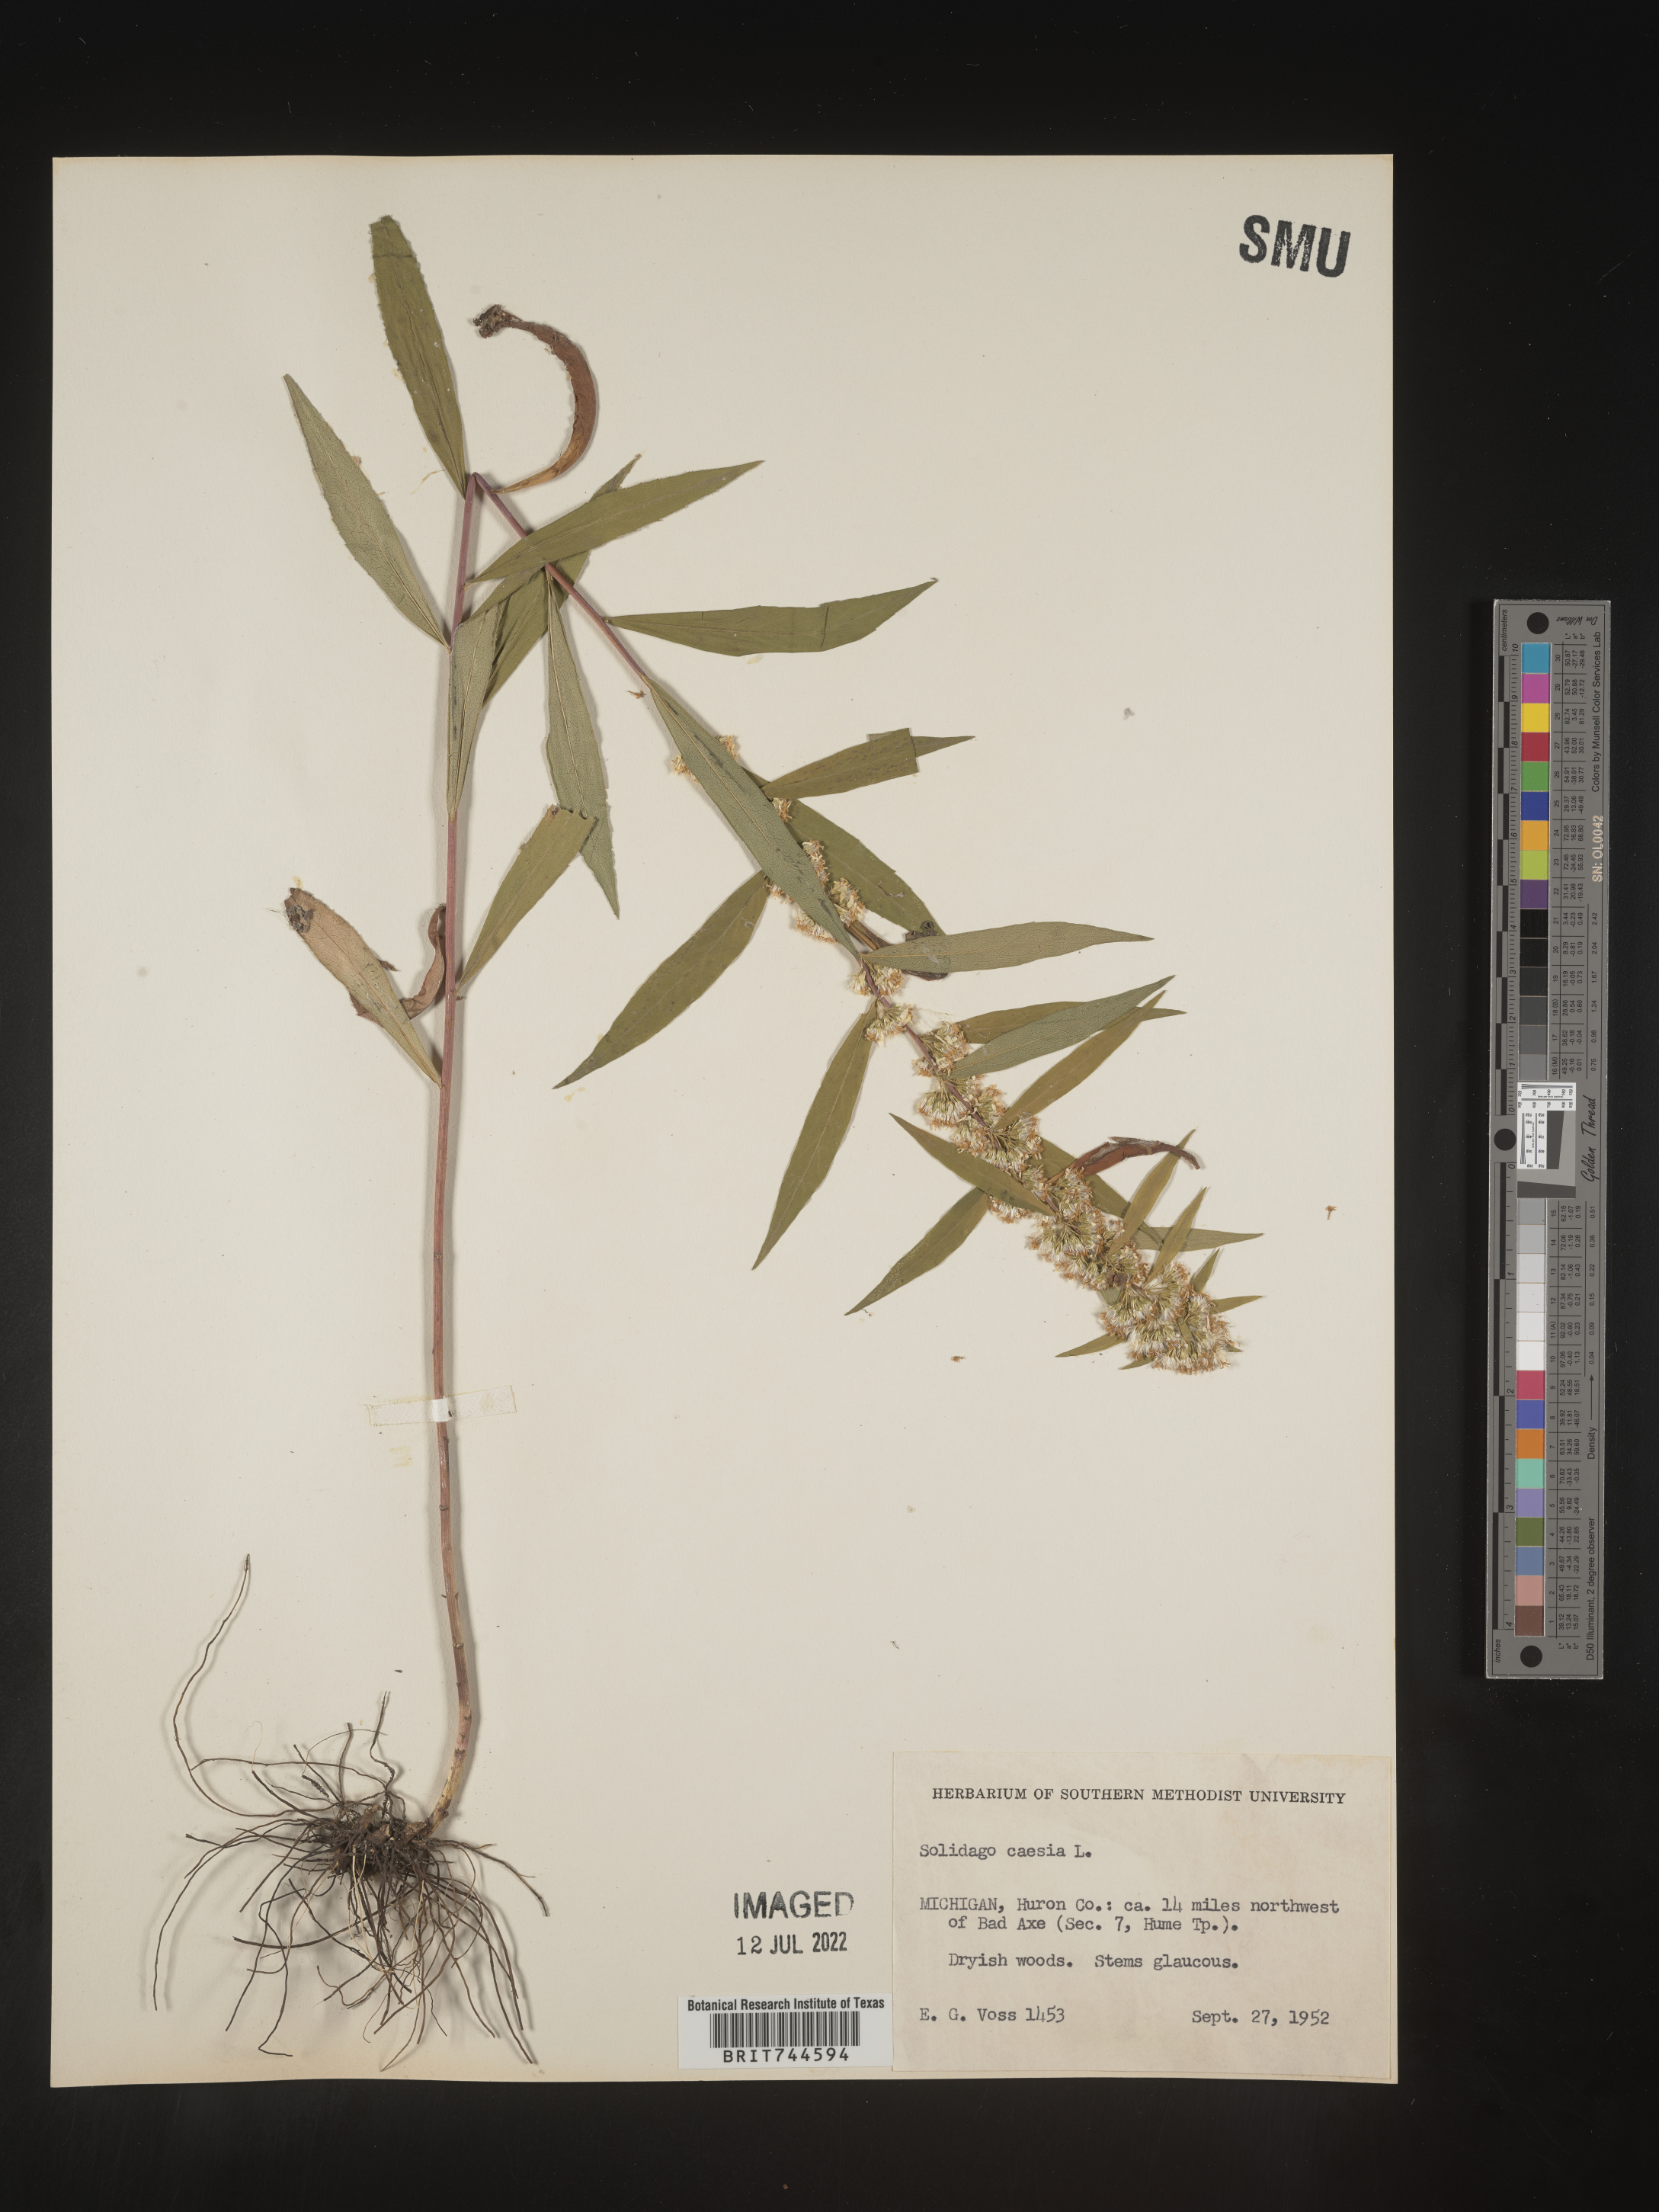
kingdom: Plantae
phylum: Tracheophyta
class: Magnoliopsida
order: Asterales
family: Asteraceae
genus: Solidago
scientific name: Solidago caesia
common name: Woodland goldenrod
